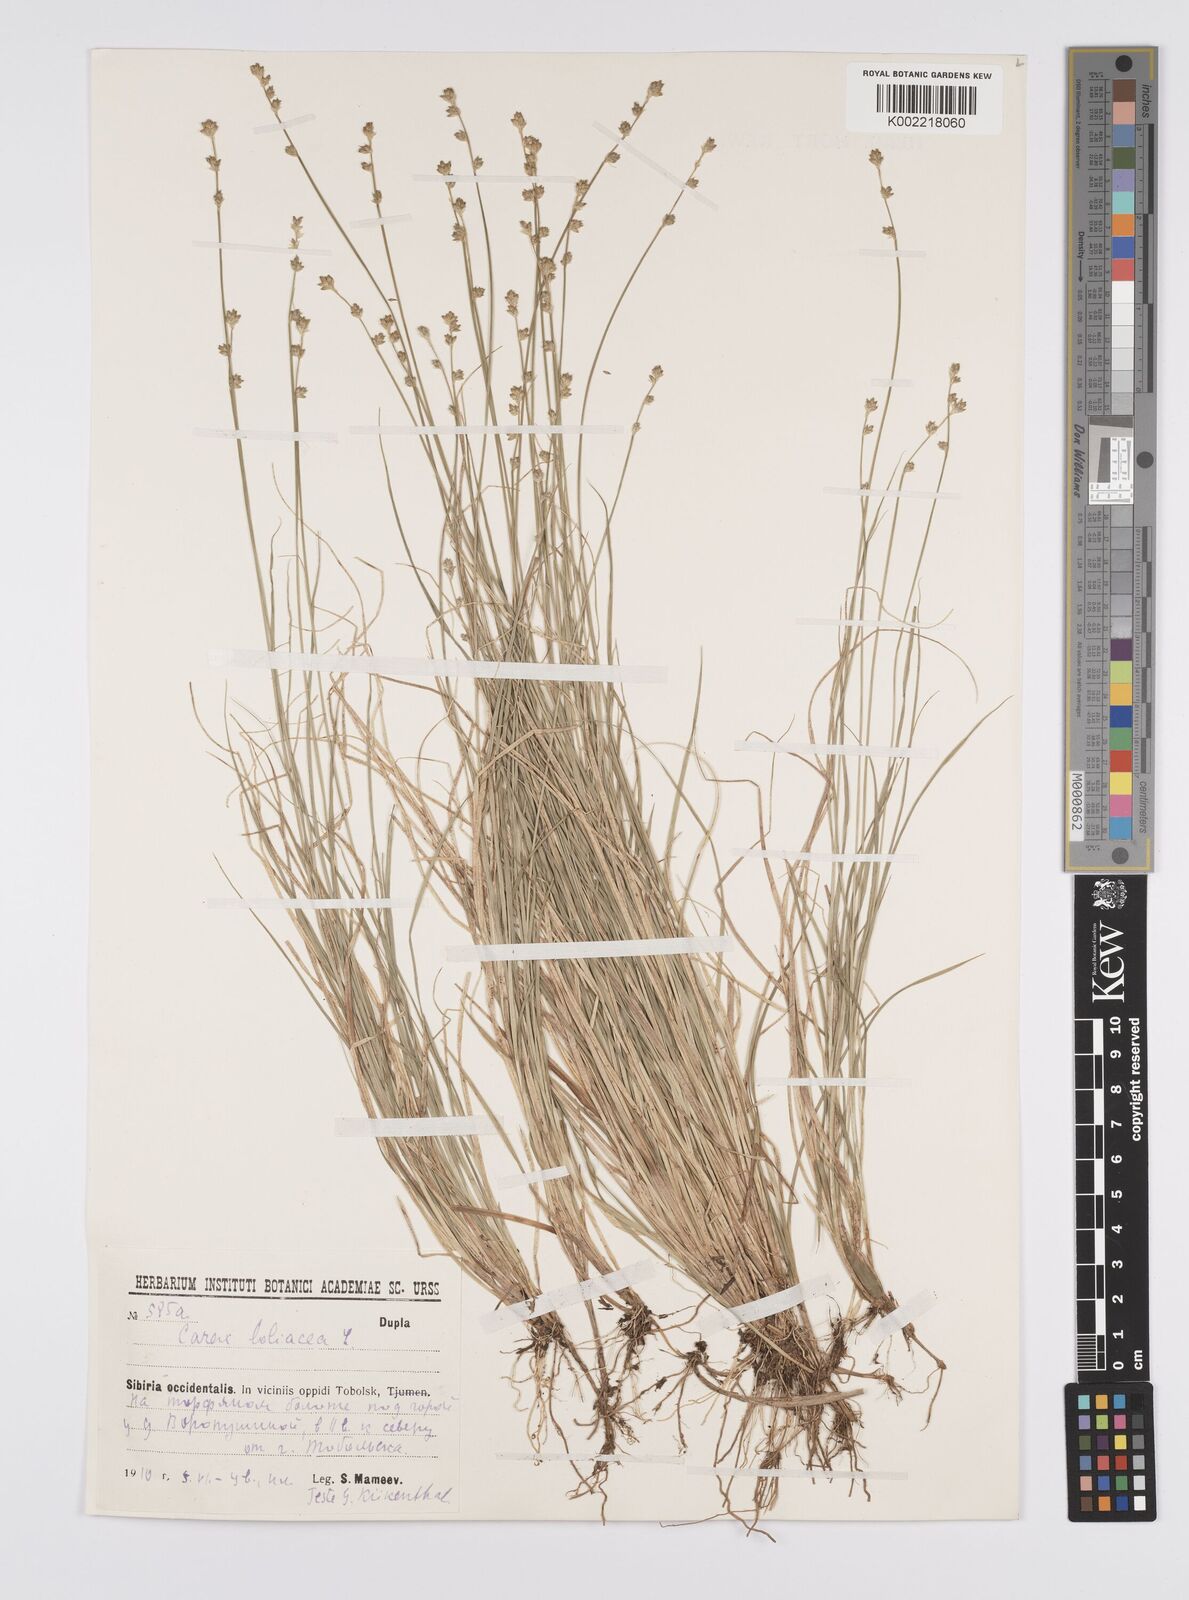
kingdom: Plantae
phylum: Tracheophyta
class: Liliopsida
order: Poales
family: Cyperaceae
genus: Carex
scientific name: Carex loliacea
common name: Ryegrass sedge
